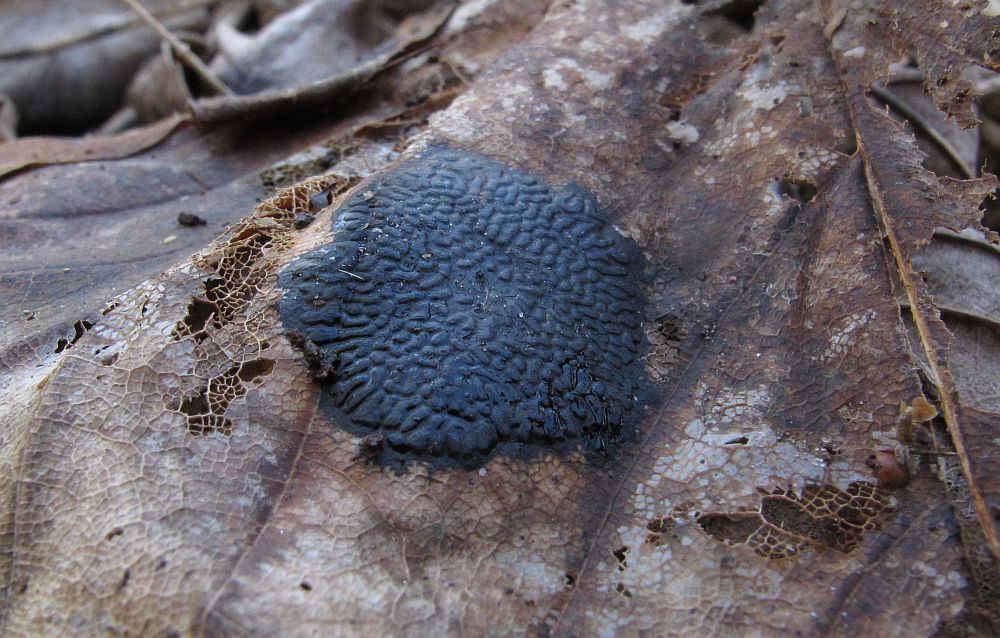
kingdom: Fungi
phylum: Ascomycota
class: Leotiomycetes
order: Rhytismatales
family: Rhytismataceae
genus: Rhytisma
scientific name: Rhytisma acerinum
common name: ahorn-rynkeplet
